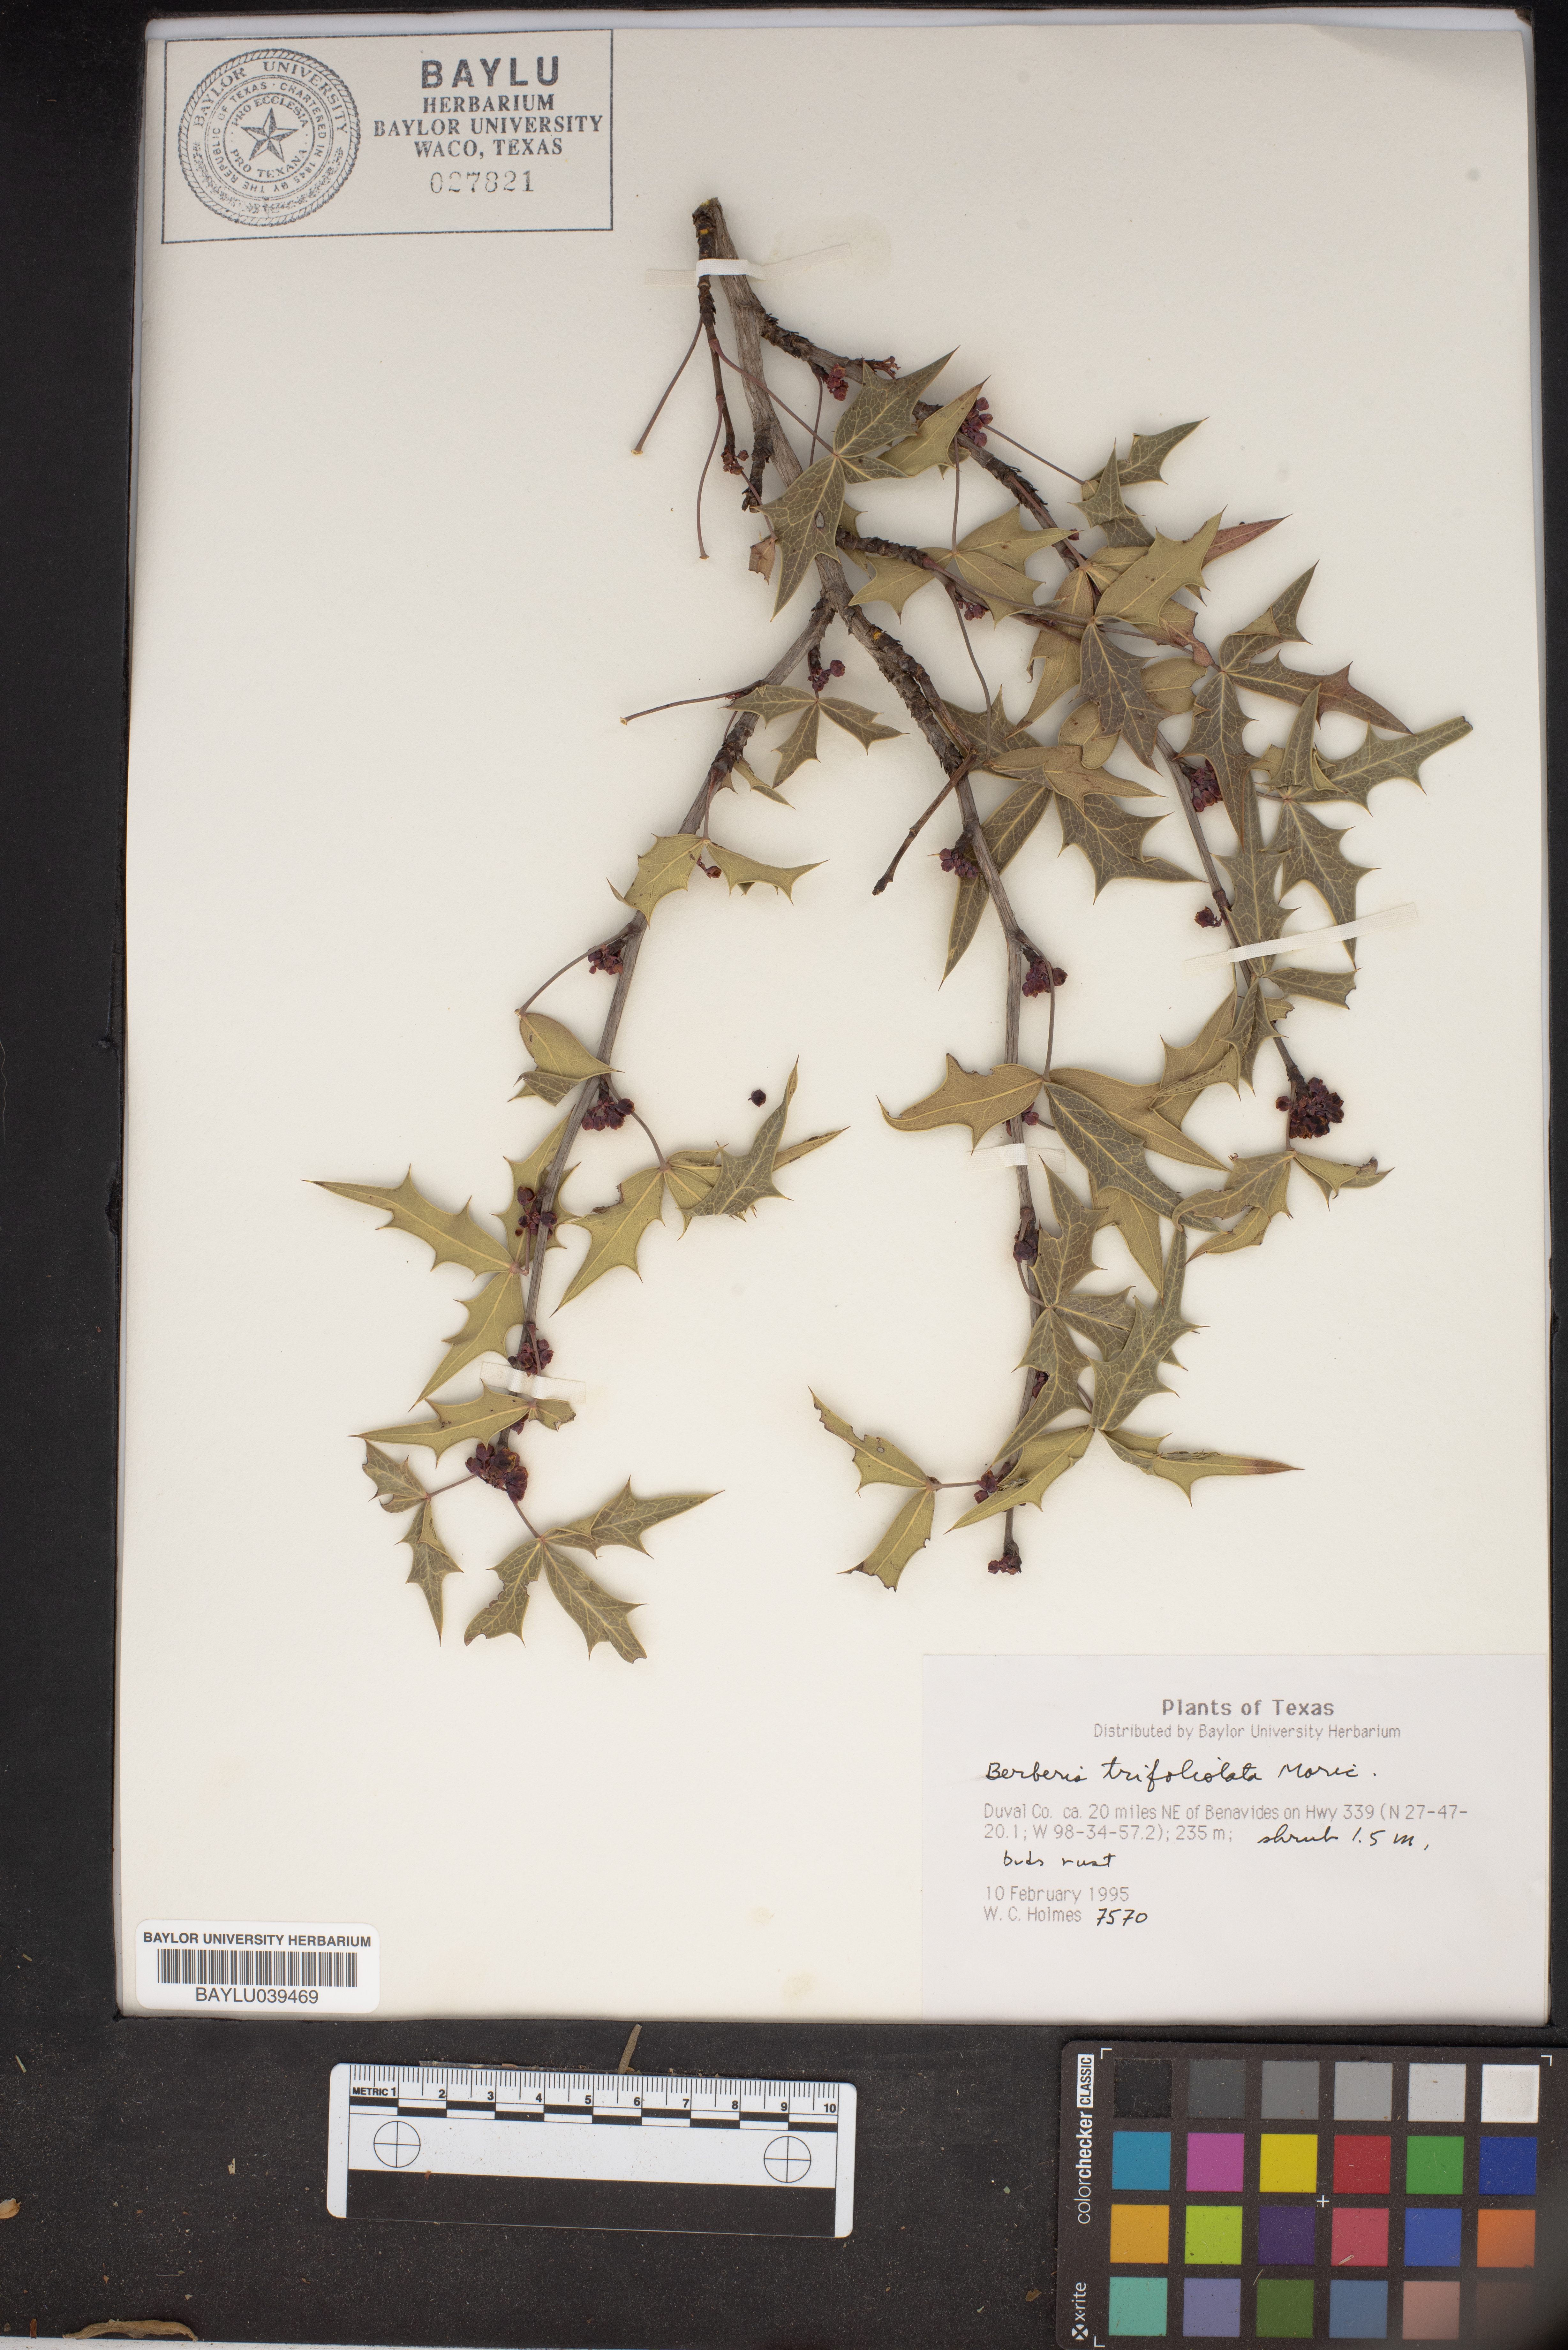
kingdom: Plantae
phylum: Tracheophyta
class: Magnoliopsida
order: Ranunculales
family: Berberidaceae
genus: Alloberberis
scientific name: Alloberberis fremontii
